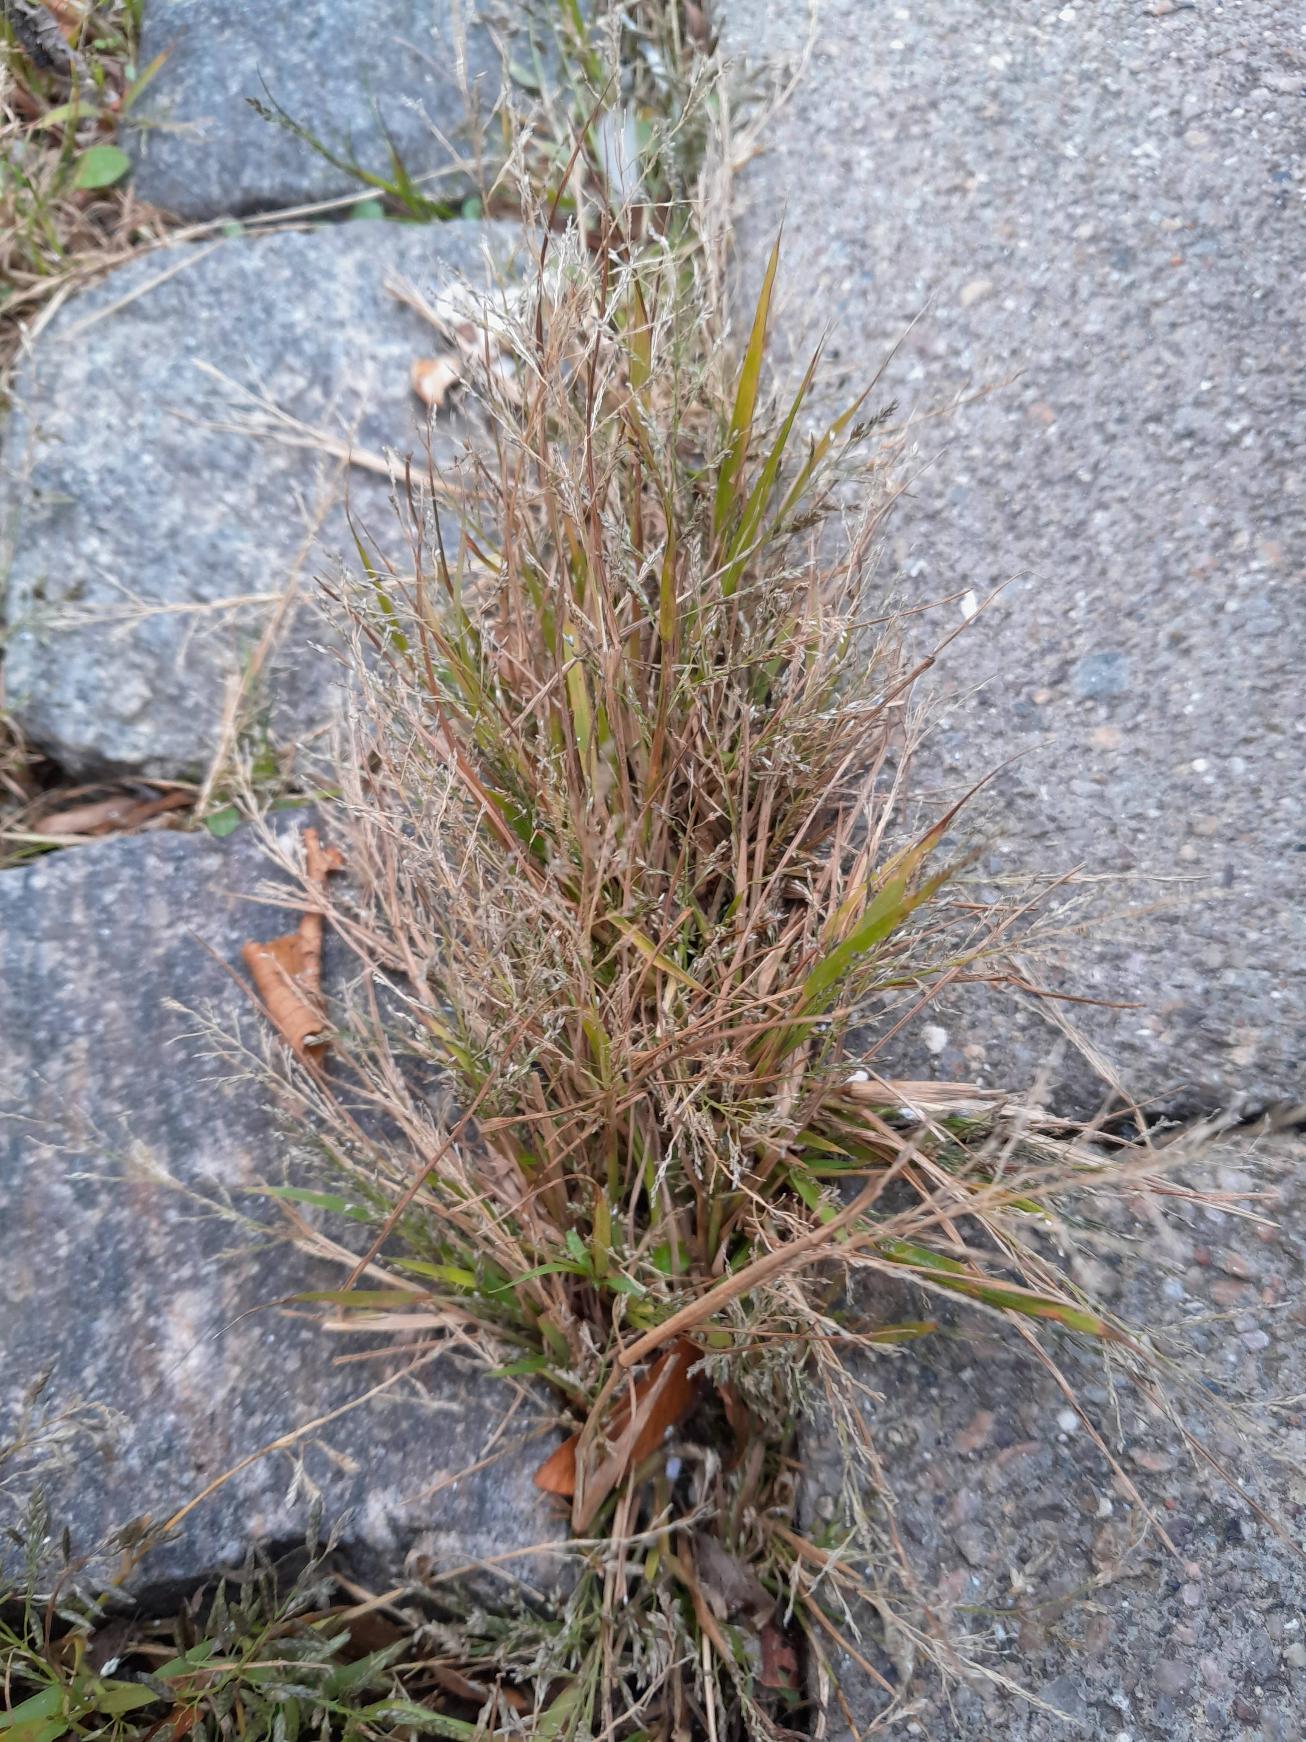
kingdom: Plantae
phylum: Tracheophyta
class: Liliopsida
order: Poales
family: Poaceae
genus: Eragrostis
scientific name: Eragrostis multicaulis
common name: Mangelstænglet kærlighedsgræs
